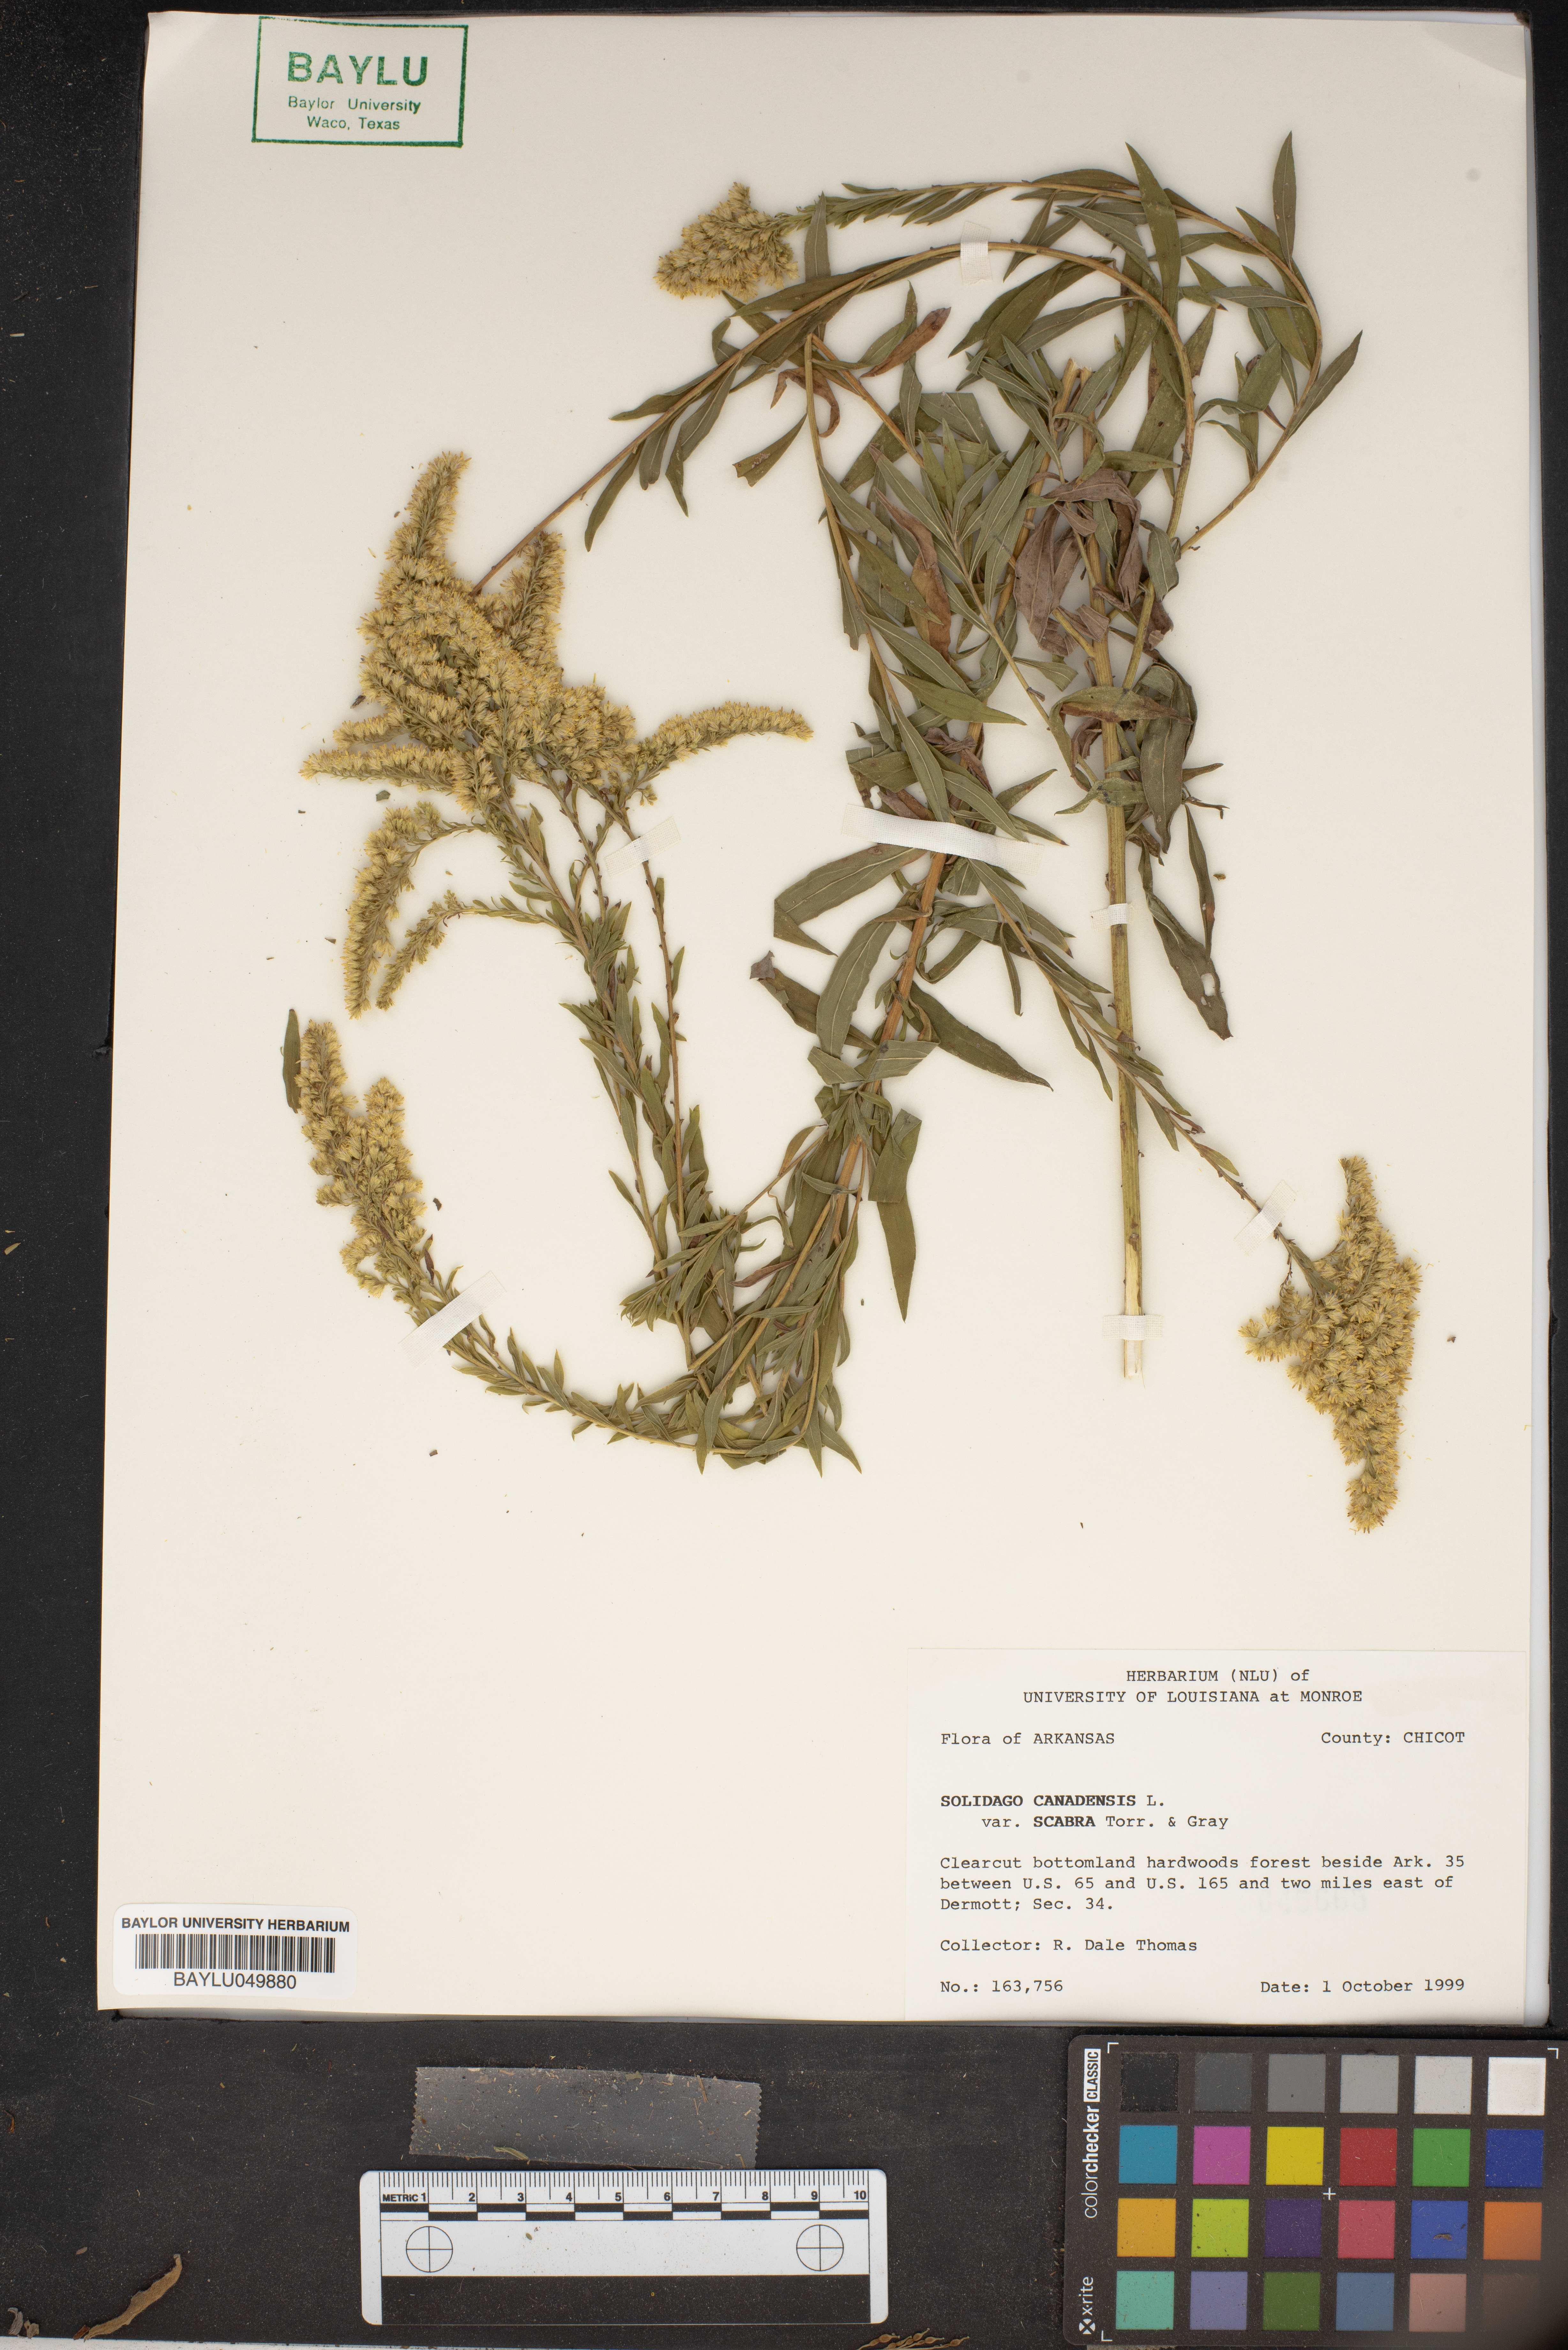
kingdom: Plantae
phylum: Tracheophyta
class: Magnoliopsida
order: Asterales
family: Asteraceae
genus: Solidago
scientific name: Solidago canadensis
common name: Canada goldenrod
